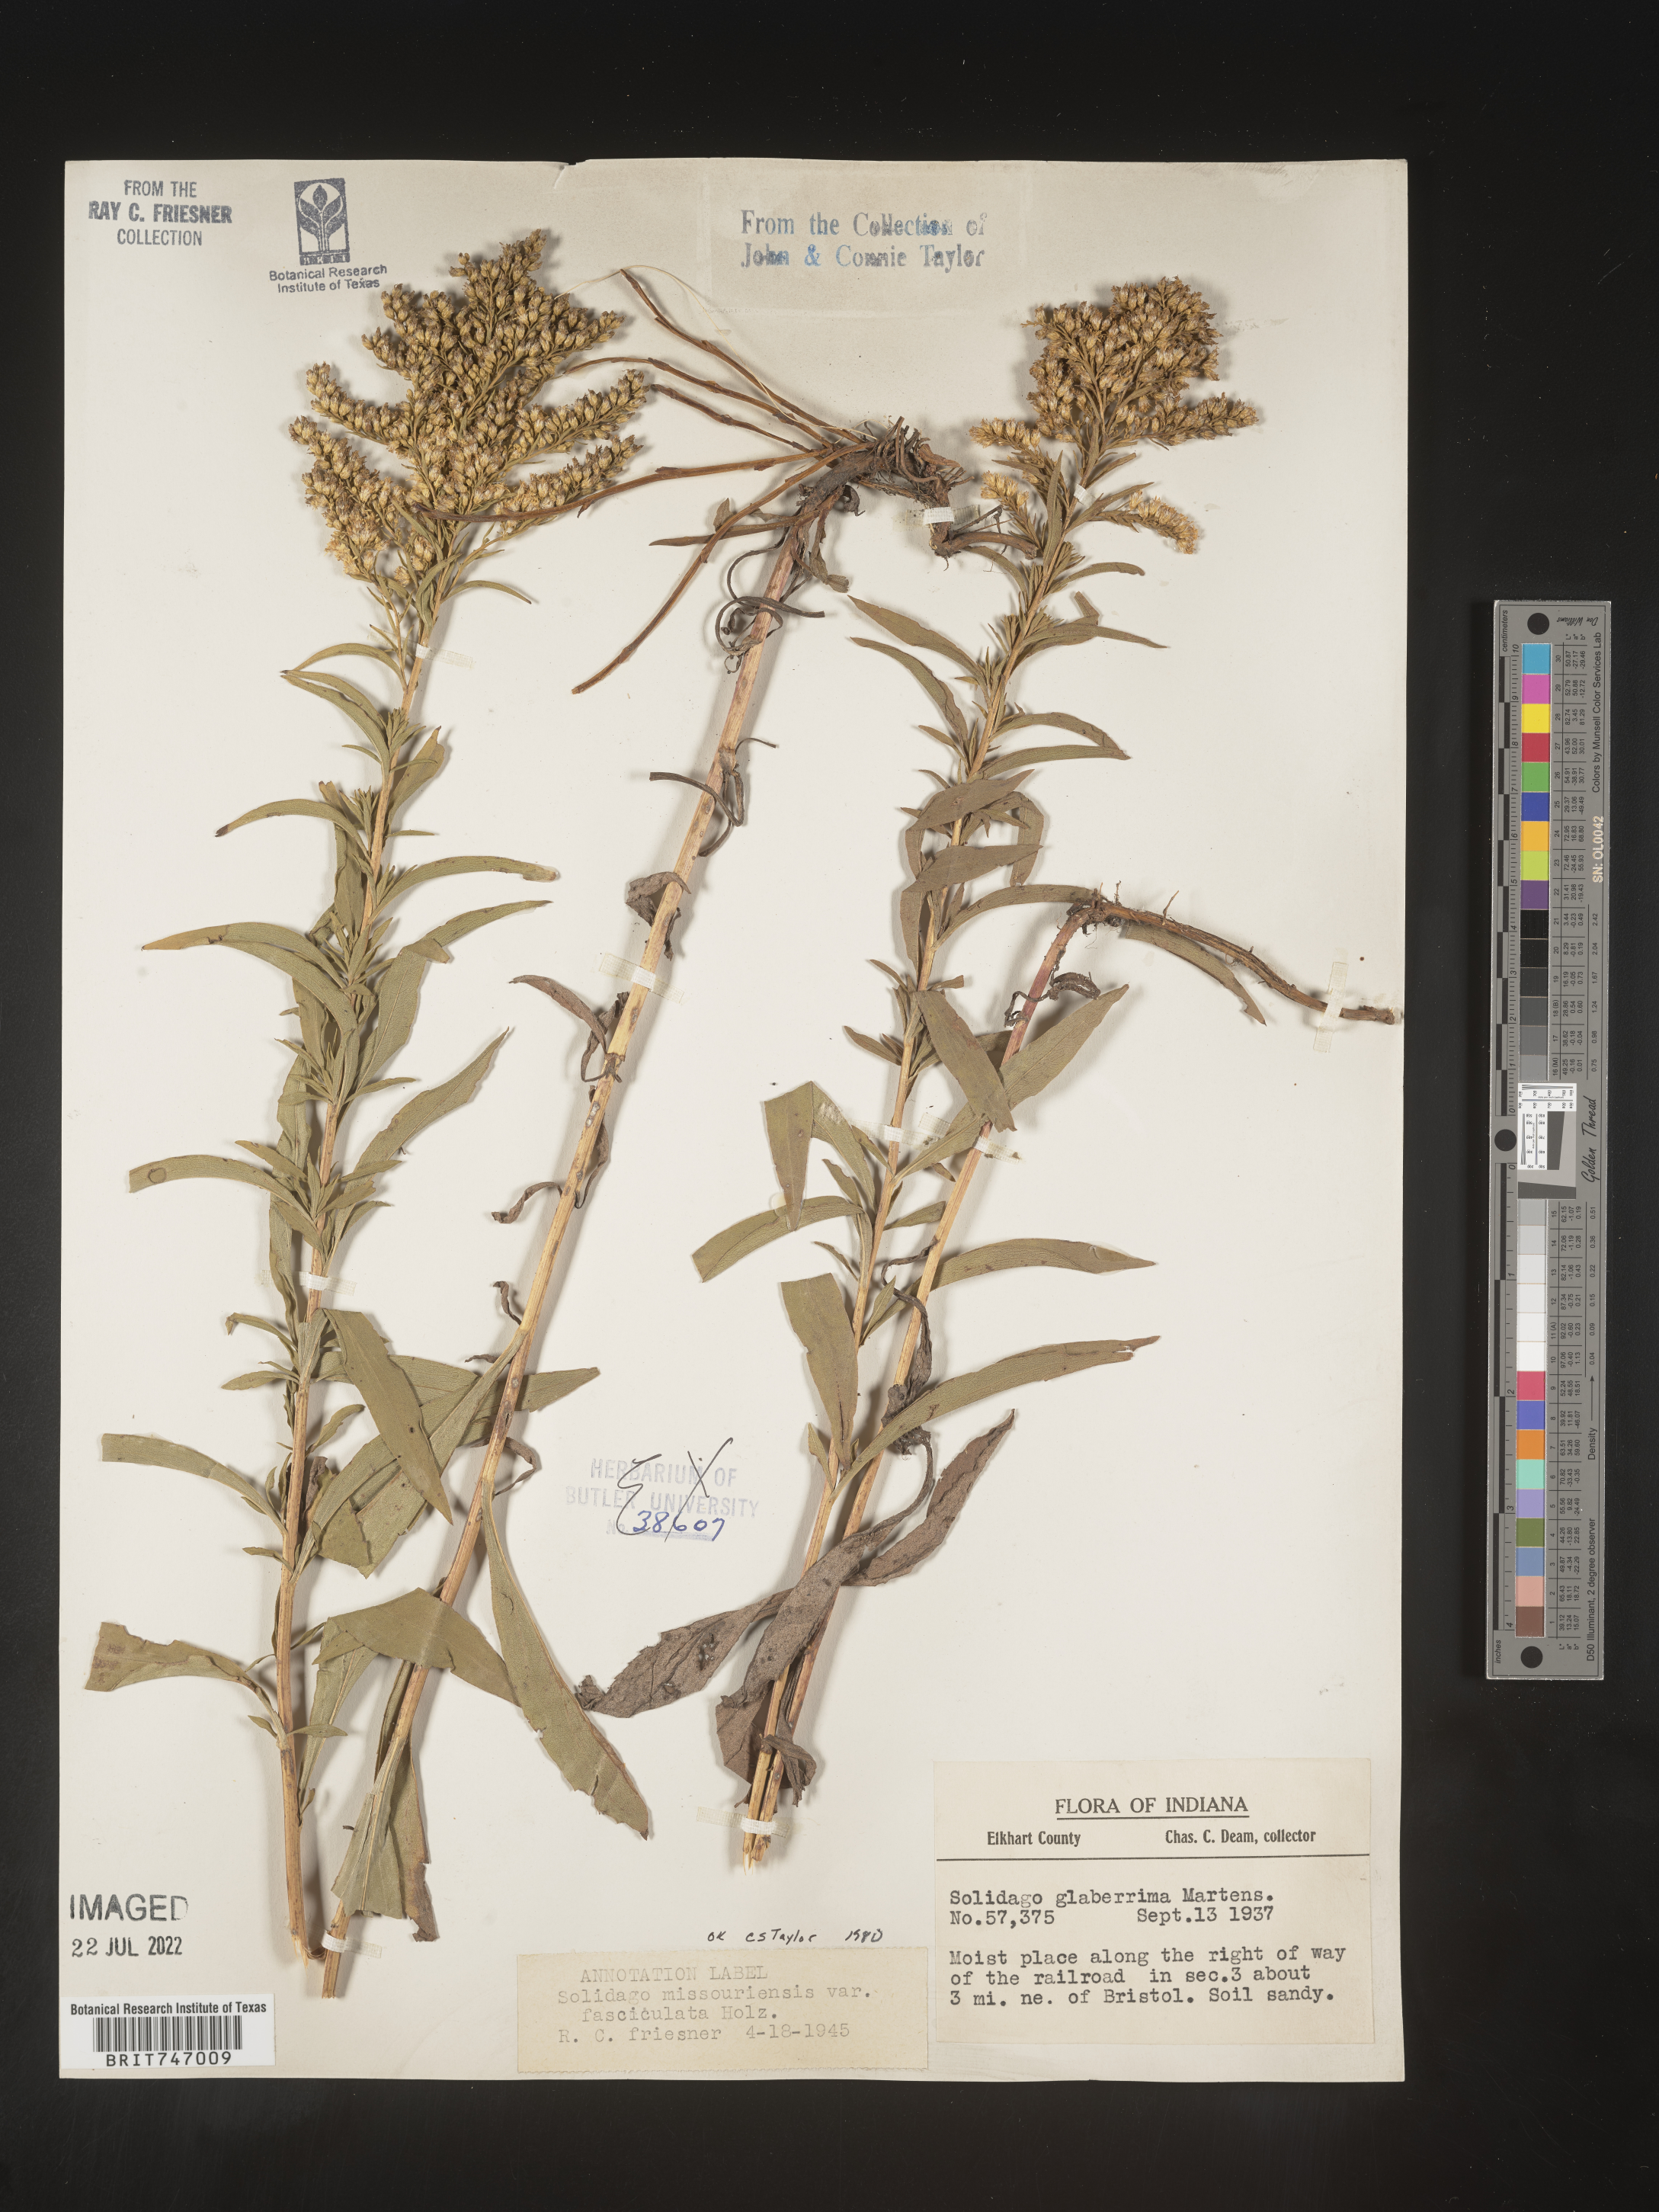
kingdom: Plantae
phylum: Tracheophyta
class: Magnoliopsida
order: Asterales
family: Asteraceae
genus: Solidago
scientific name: Solidago missouriensis
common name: Prairie goldenrod
